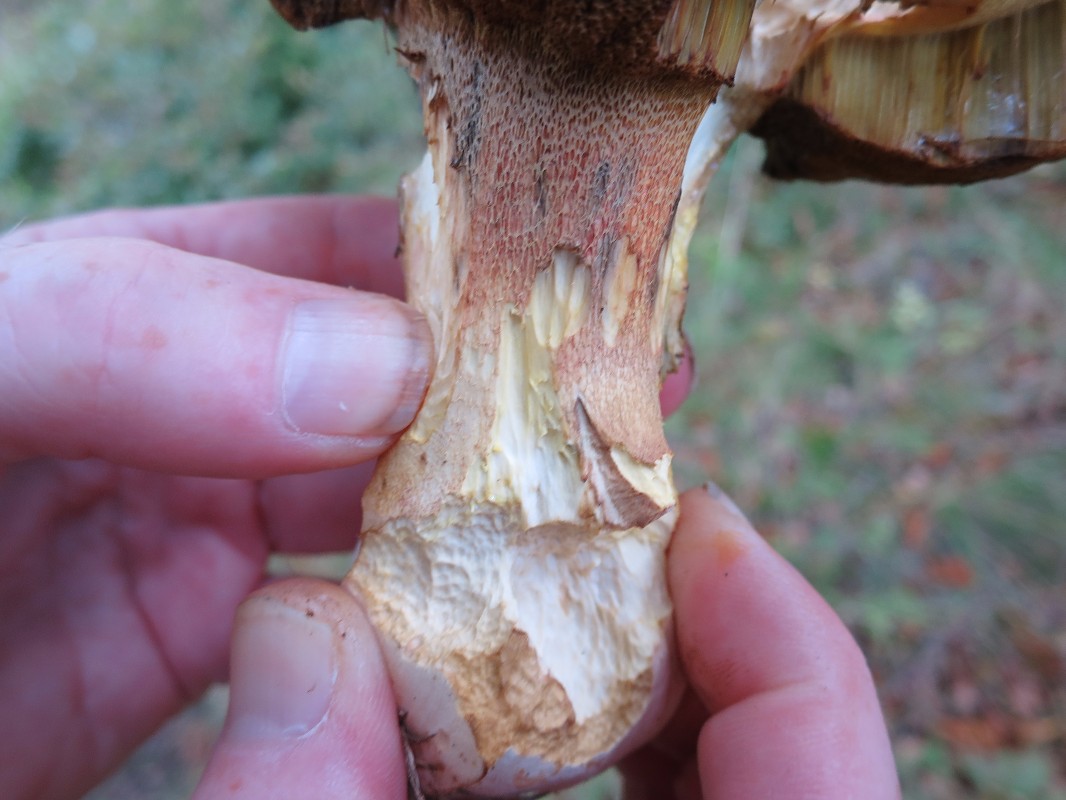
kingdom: Fungi
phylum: Basidiomycota
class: Agaricomycetes
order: Boletales
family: Boletaceae
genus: Butyriboletus
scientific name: Butyriboletus fechtneri
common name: sølvskinnende rørhat
